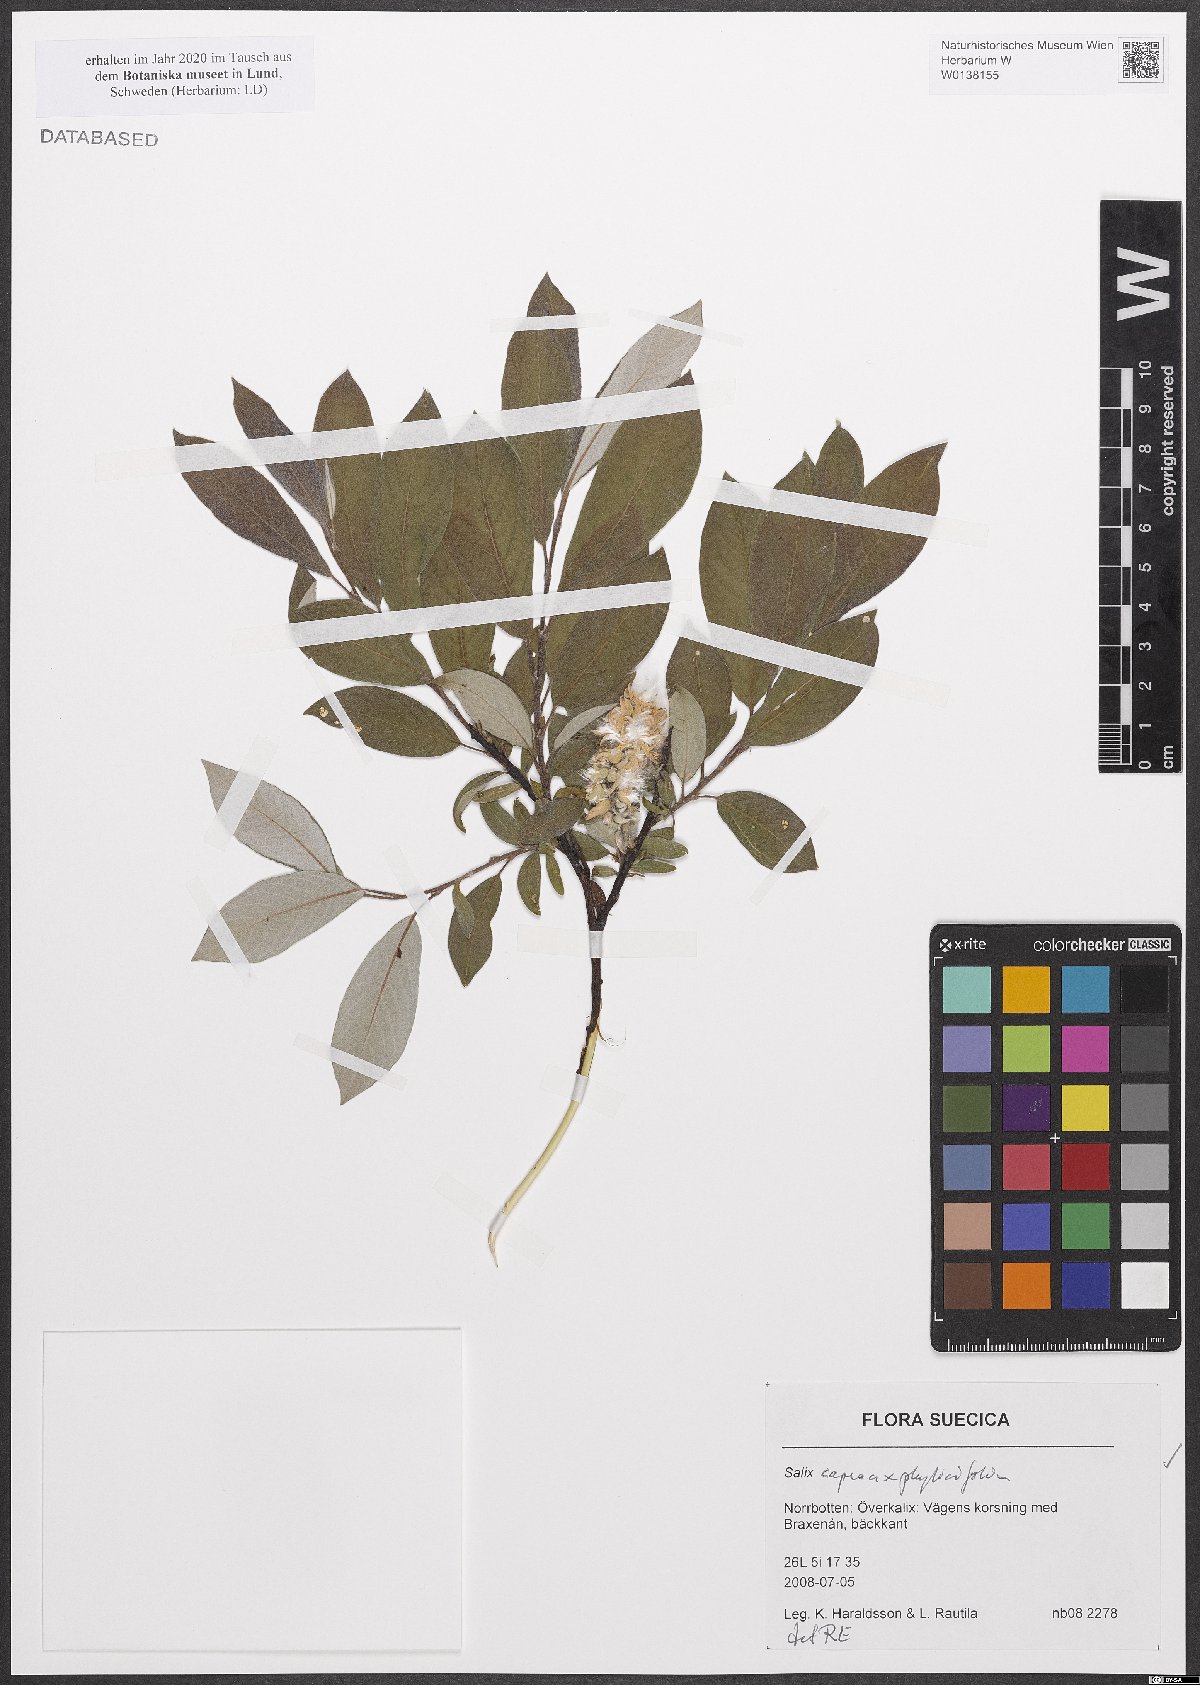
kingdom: Plantae
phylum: Tracheophyta
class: Magnoliopsida
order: Malpighiales
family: Salicaceae
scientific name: Salicaceae
